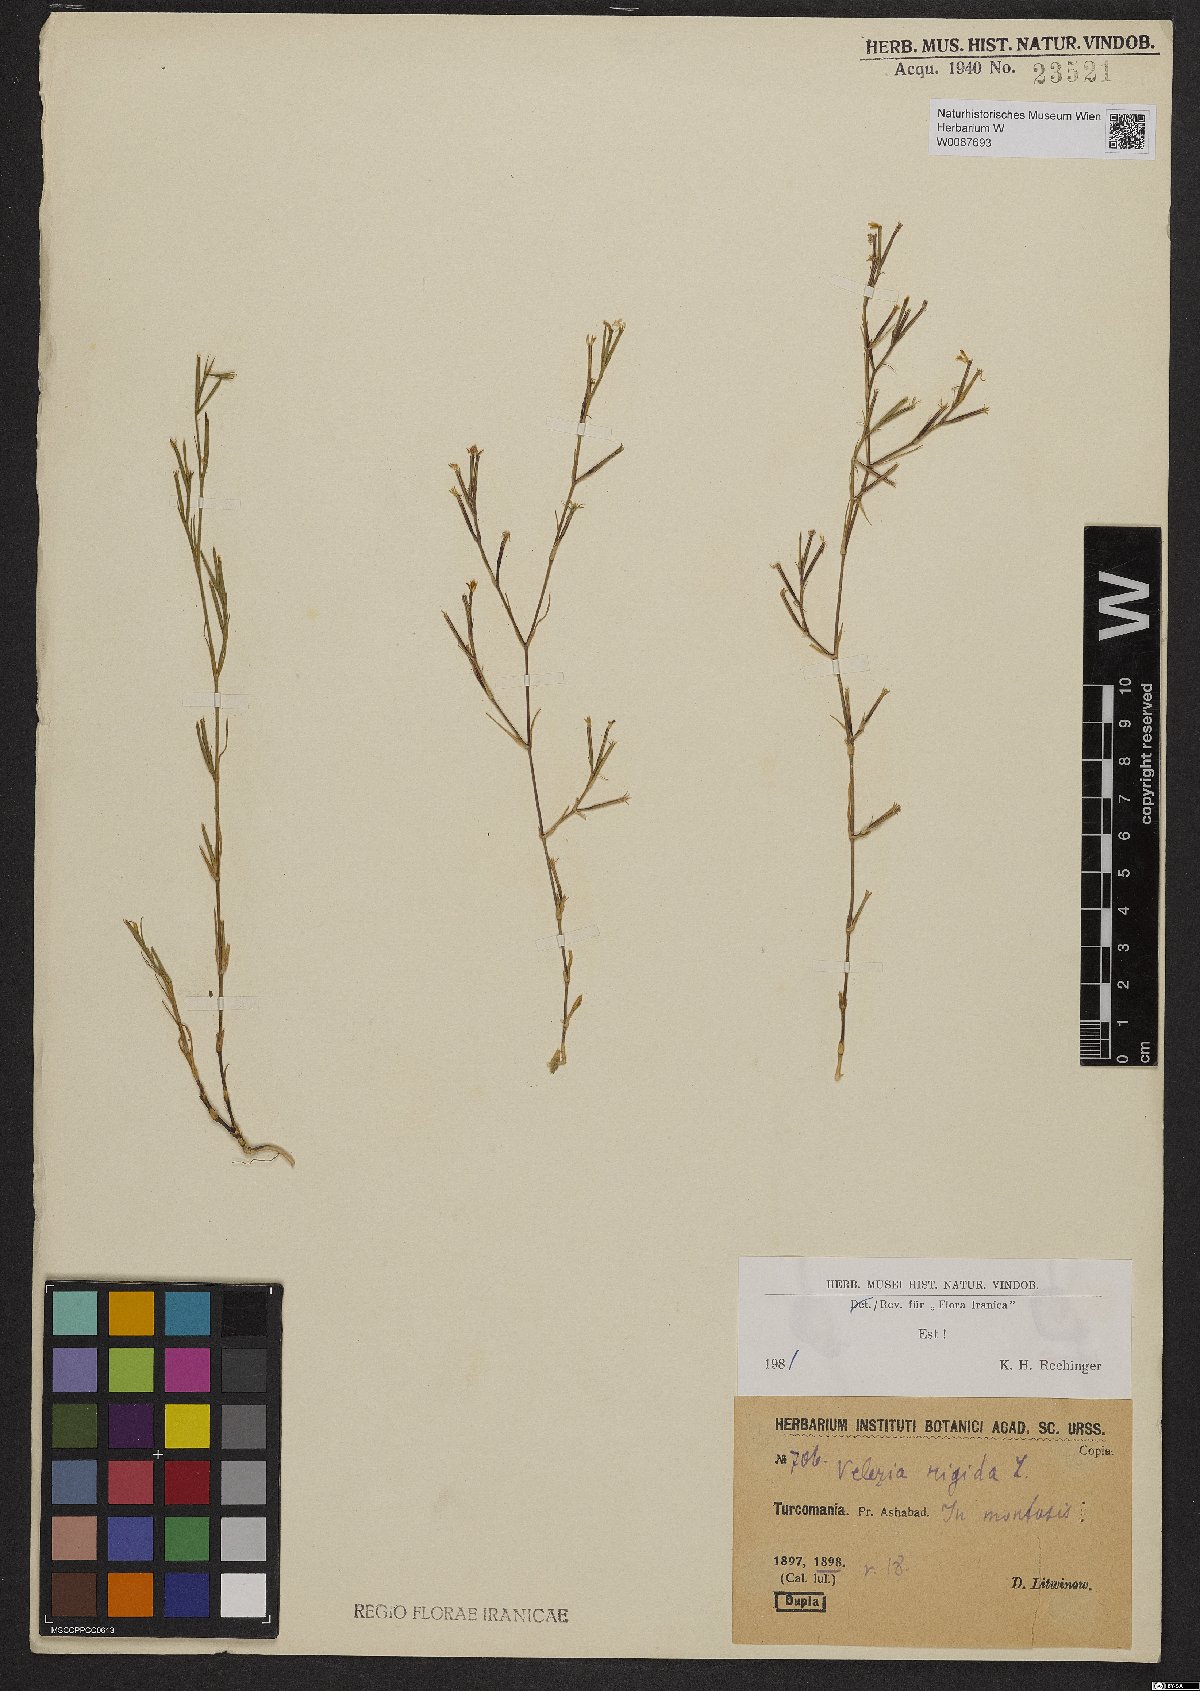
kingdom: Plantae
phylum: Tracheophyta
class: Magnoliopsida
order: Caryophyllales
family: Caryophyllaceae
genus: Dianthus
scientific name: Dianthus nudiflorus
